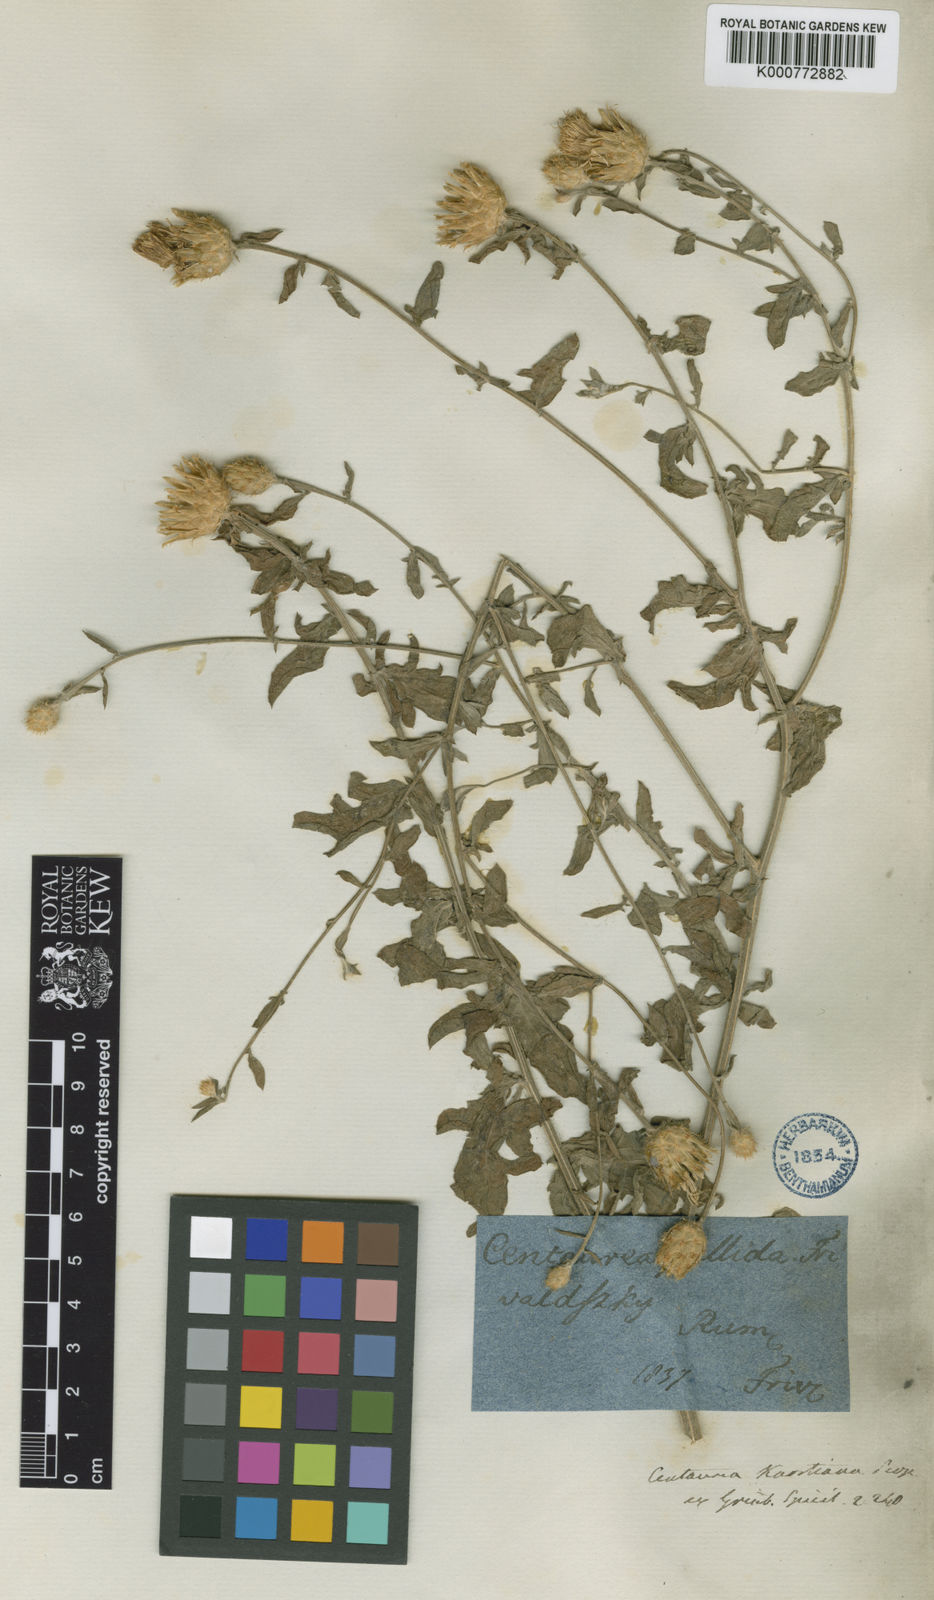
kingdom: Plantae
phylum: Tracheophyta
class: Magnoliopsida
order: Asterales
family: Asteraceae
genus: Centaurea
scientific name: Centaurea cuneifolia
